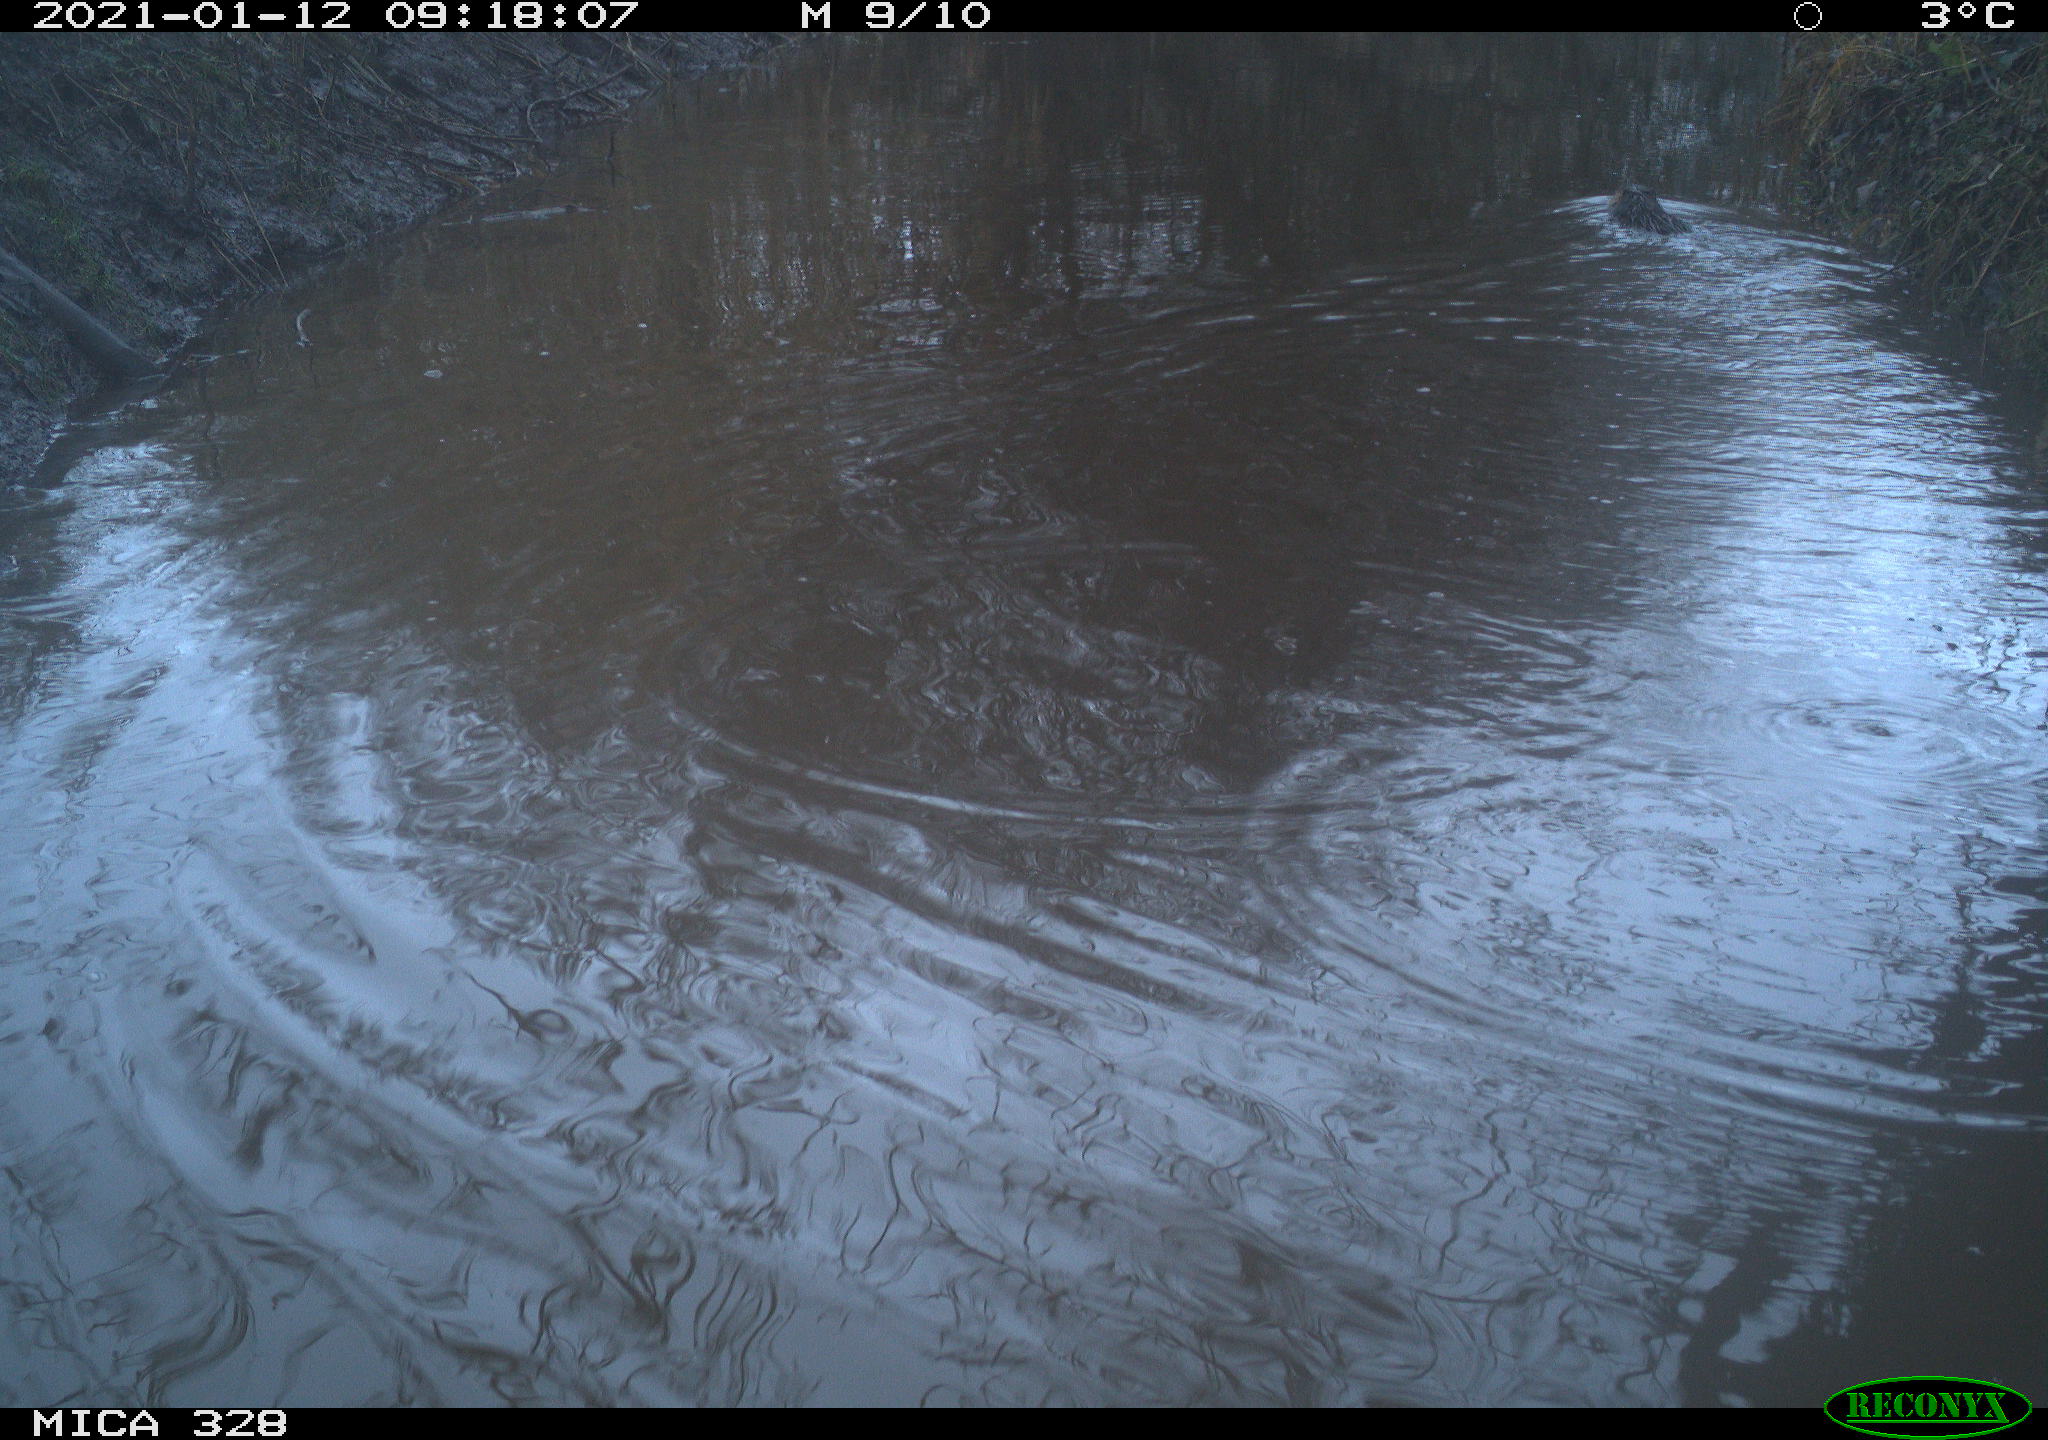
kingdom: Animalia
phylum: Chordata
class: Mammalia
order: Rodentia
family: Myocastoridae
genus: Myocastor
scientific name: Myocastor coypus
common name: Coypu
